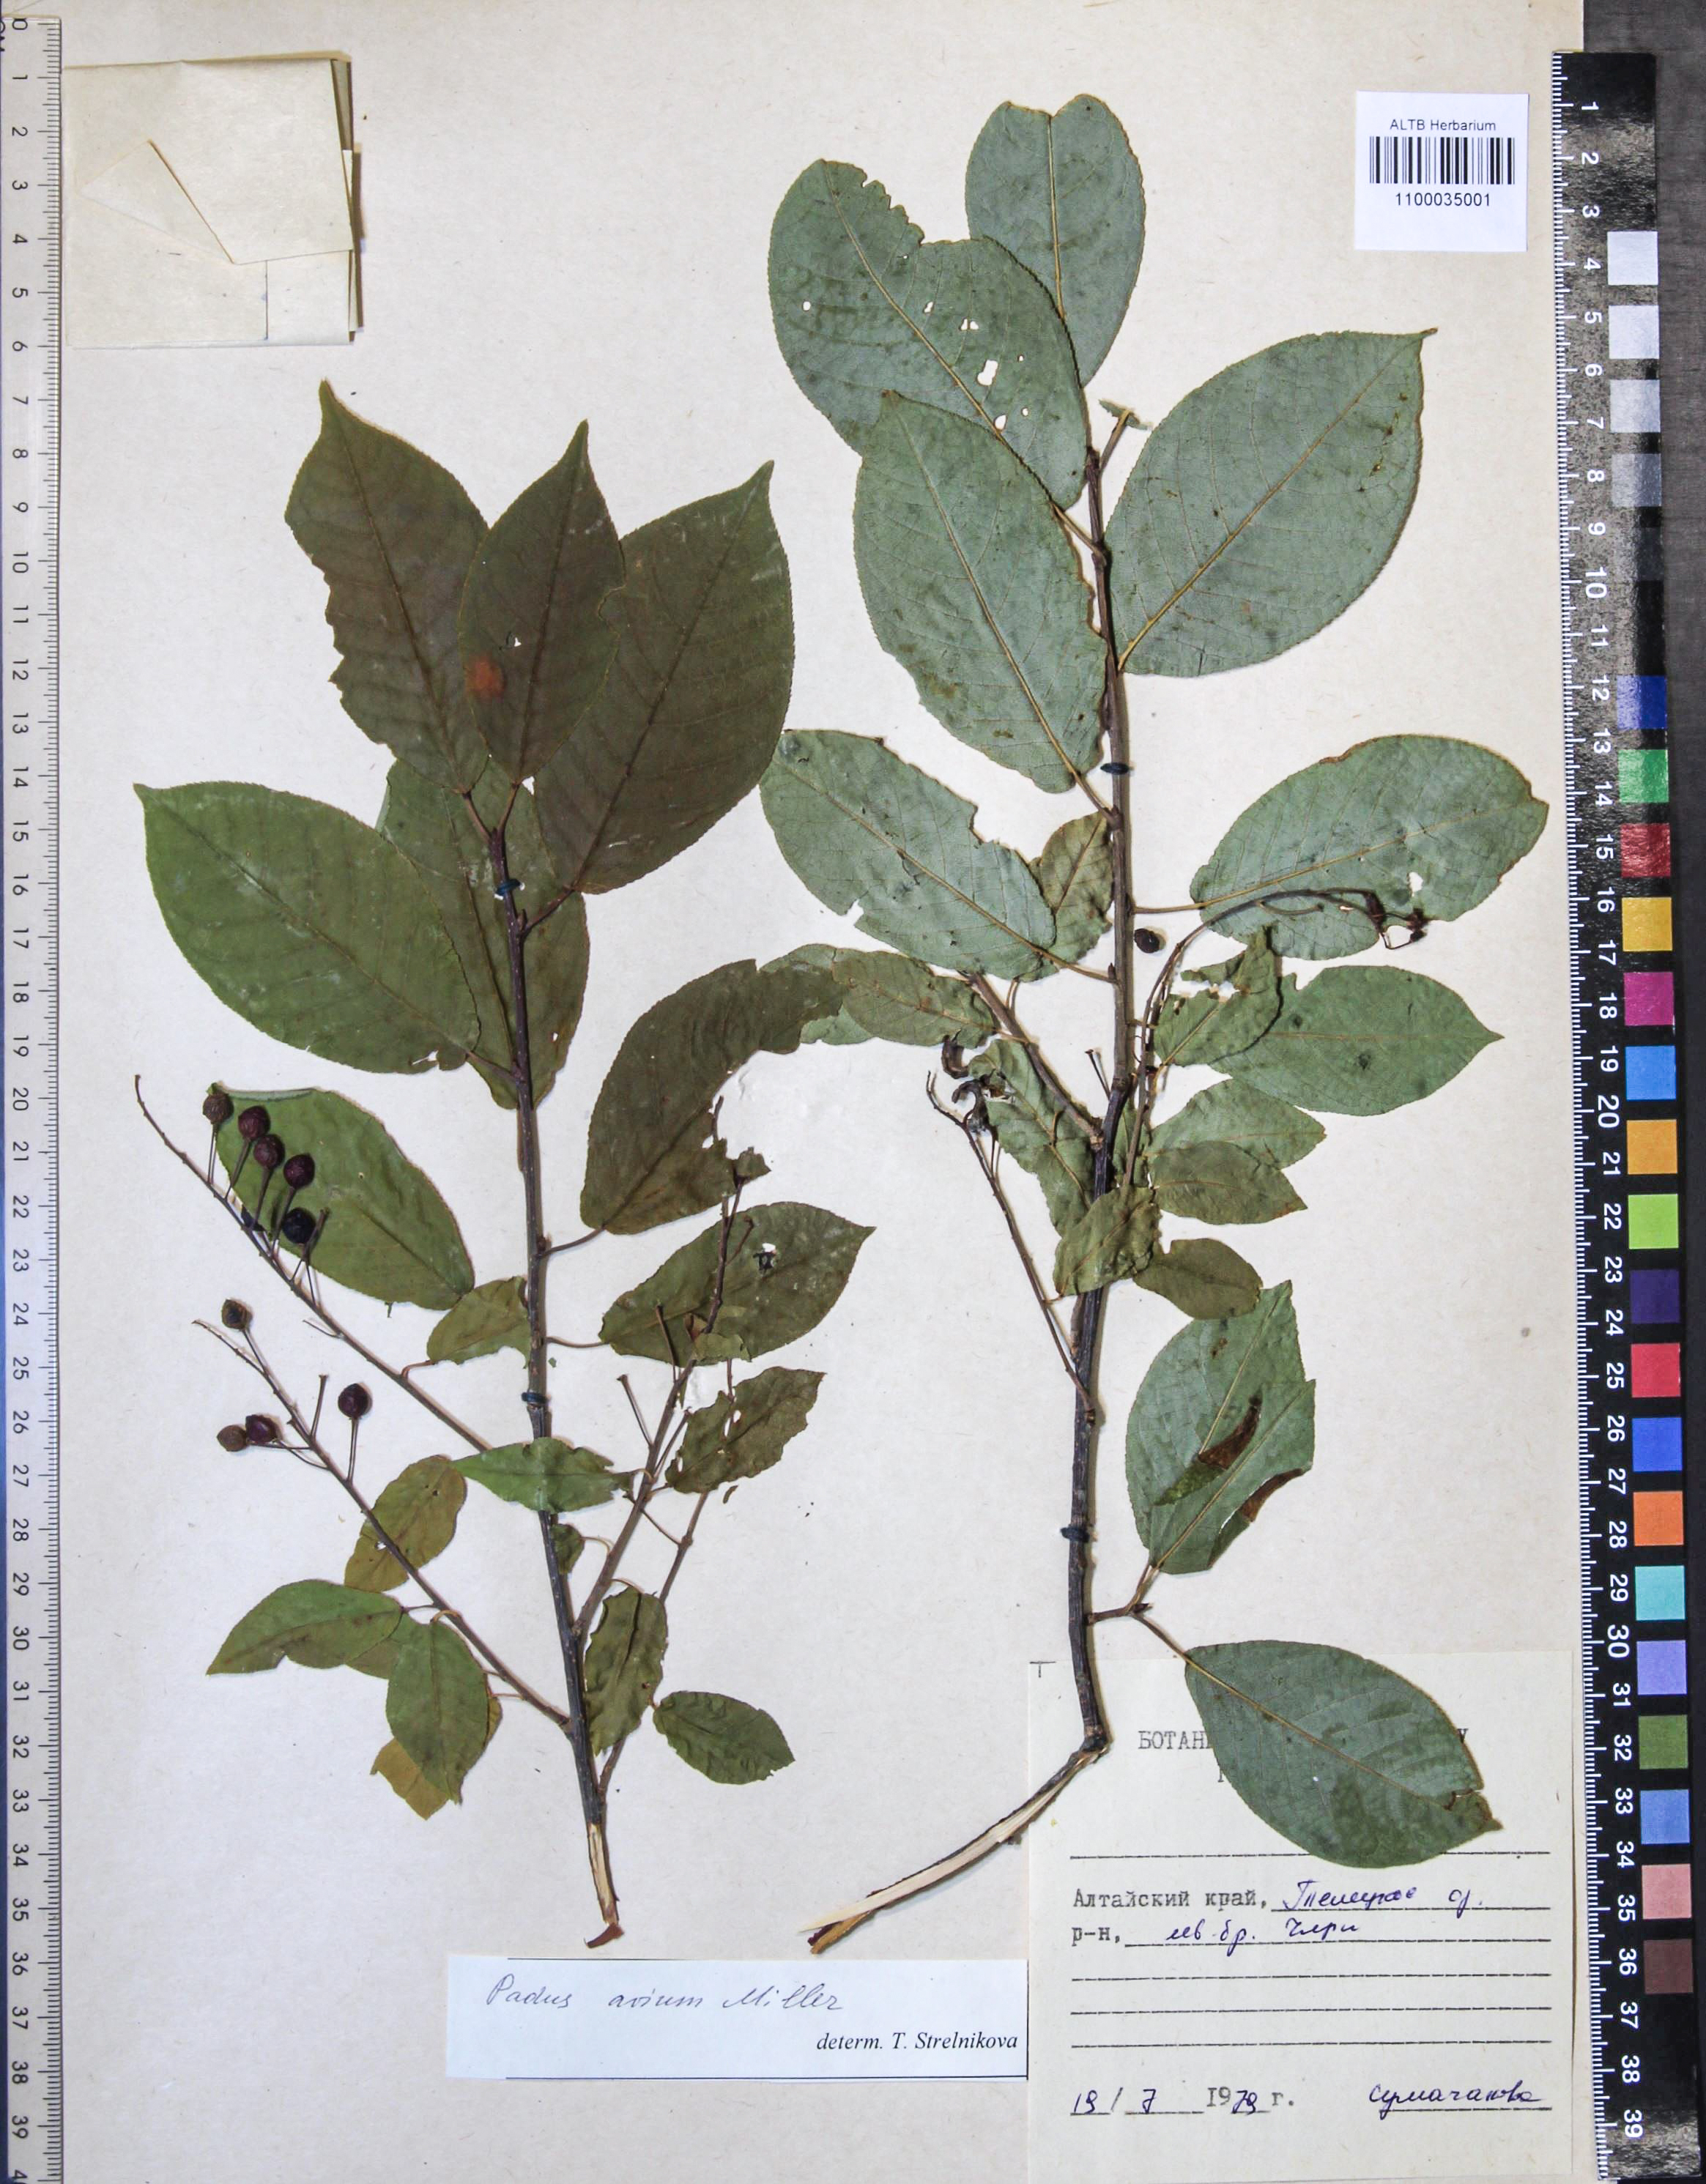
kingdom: Plantae
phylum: Tracheophyta
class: Magnoliopsida
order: Rosales
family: Rosaceae
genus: Prunus
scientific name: Prunus padus
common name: Bird cherry
